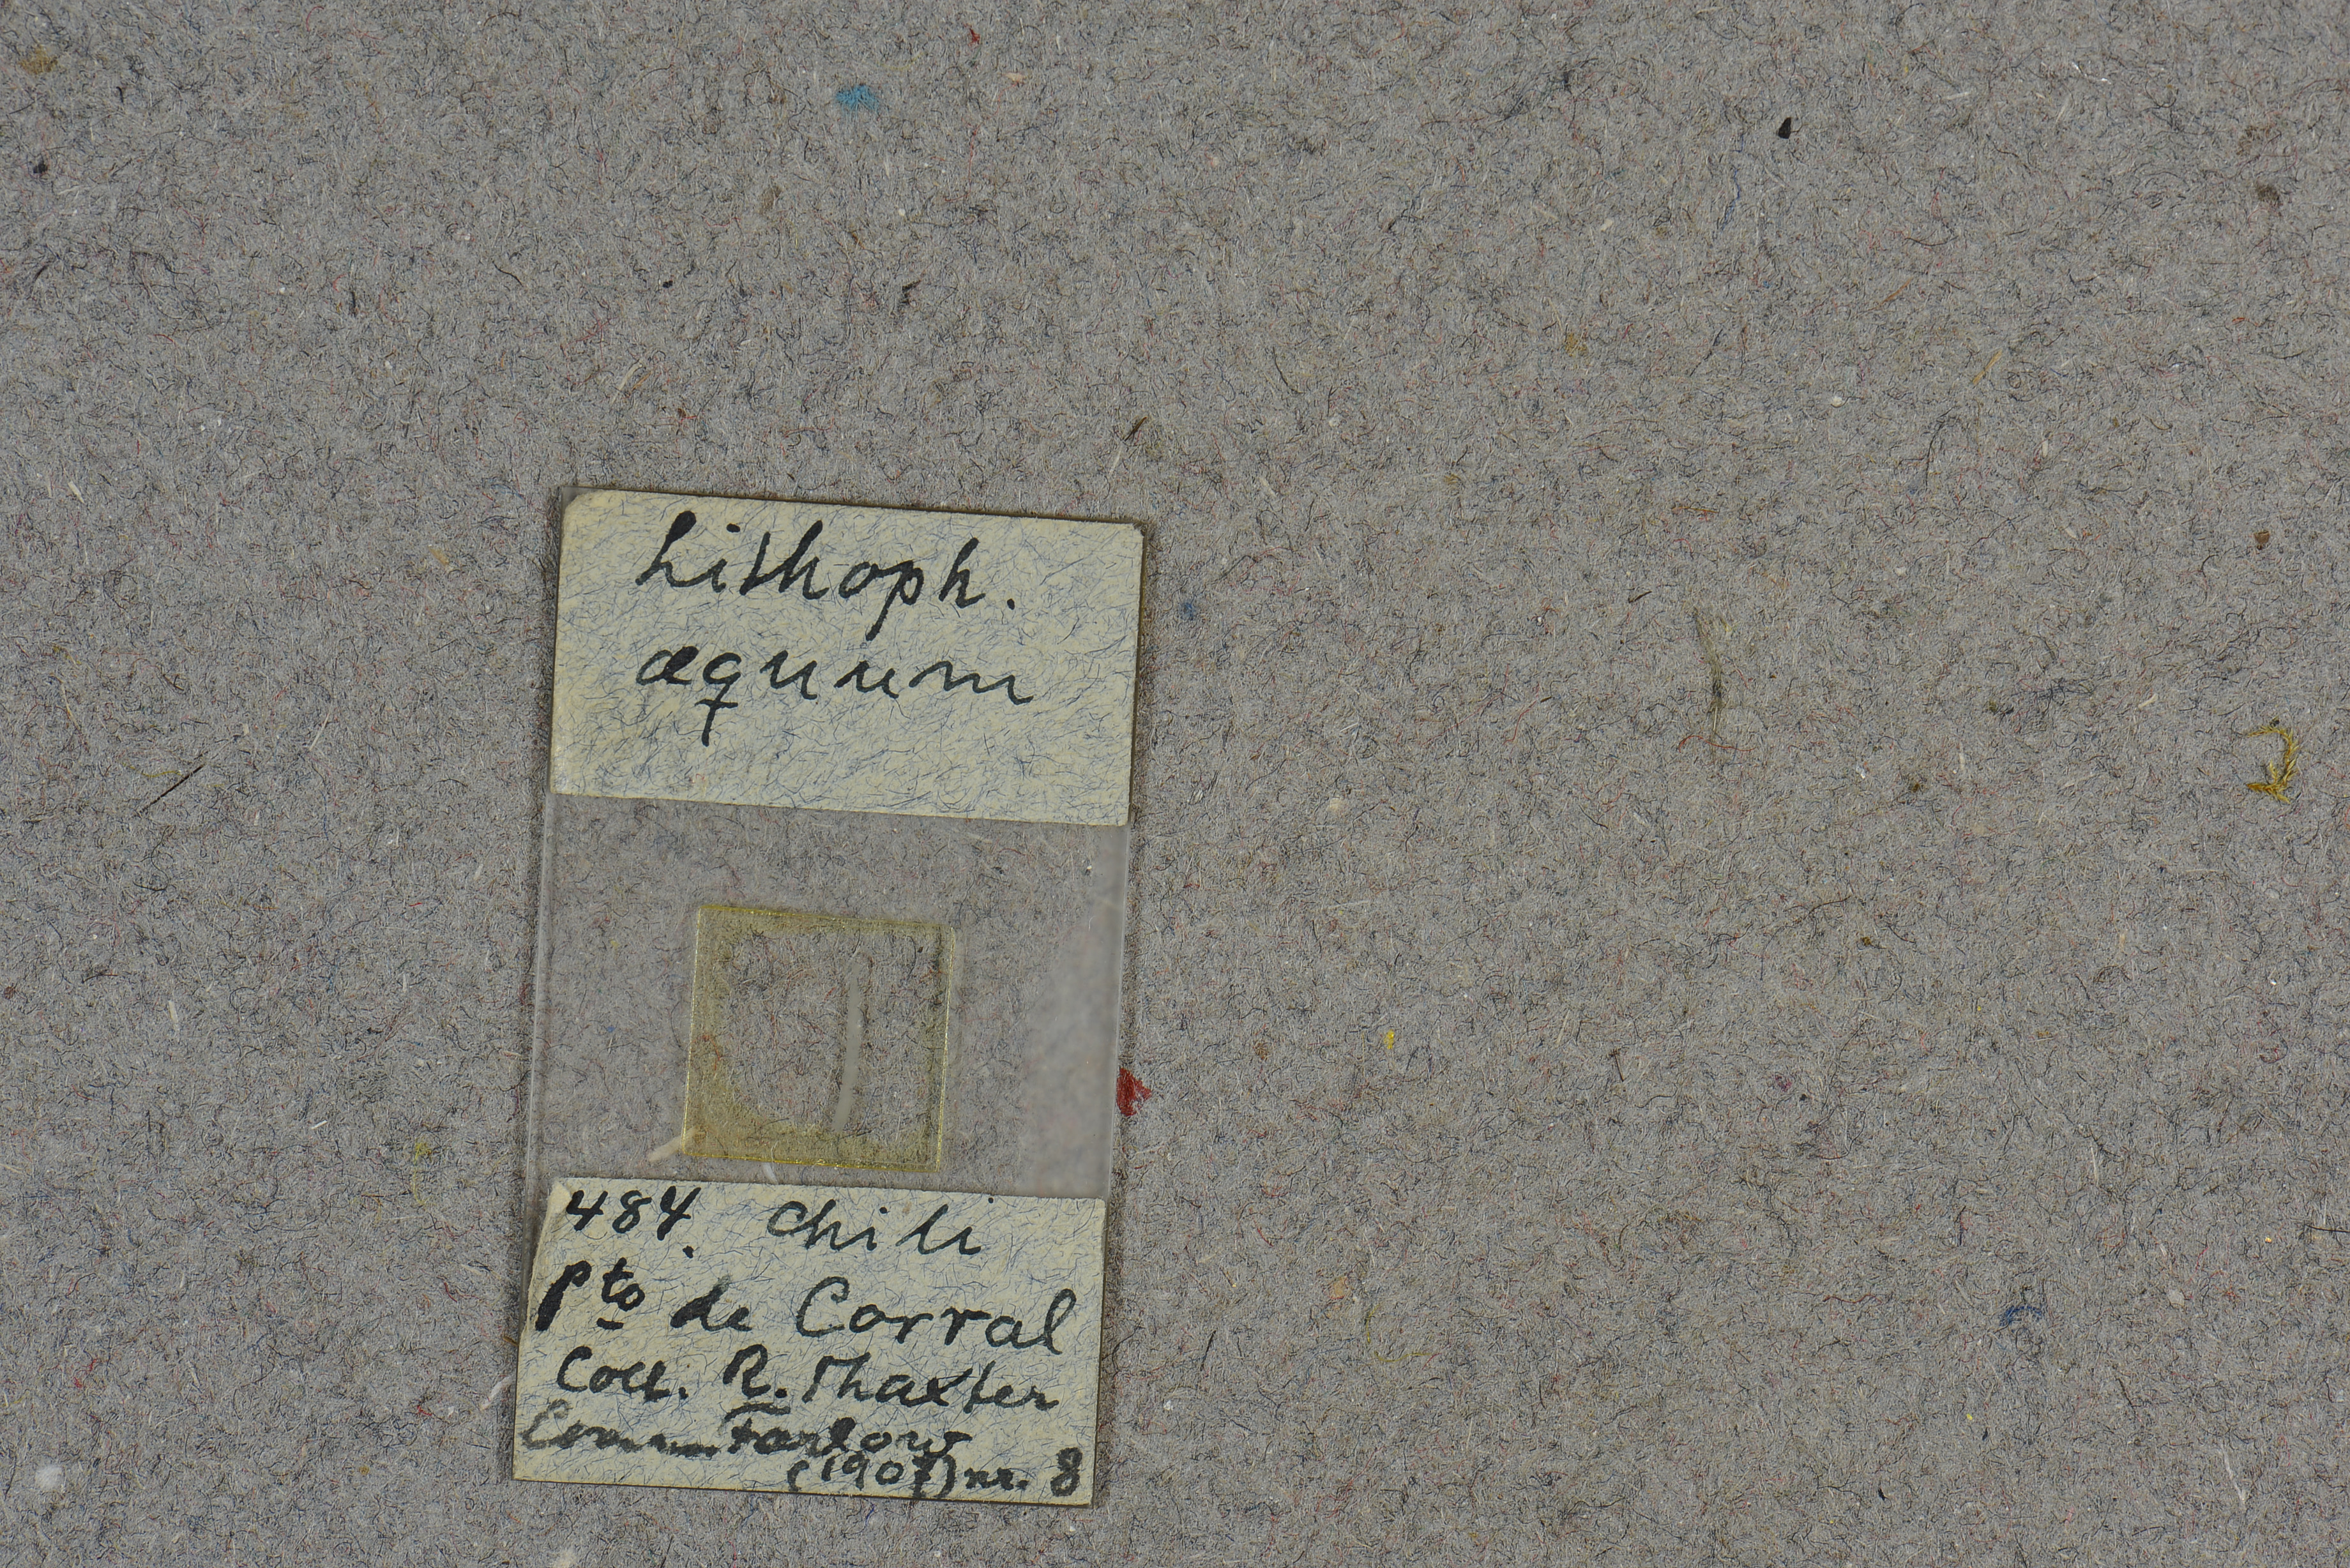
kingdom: Plantae
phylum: Rhodophyta
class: Florideophyceae
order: Corallinales
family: Lithophyllaceae
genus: Lithophyllum
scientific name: Lithophyllum aequum
